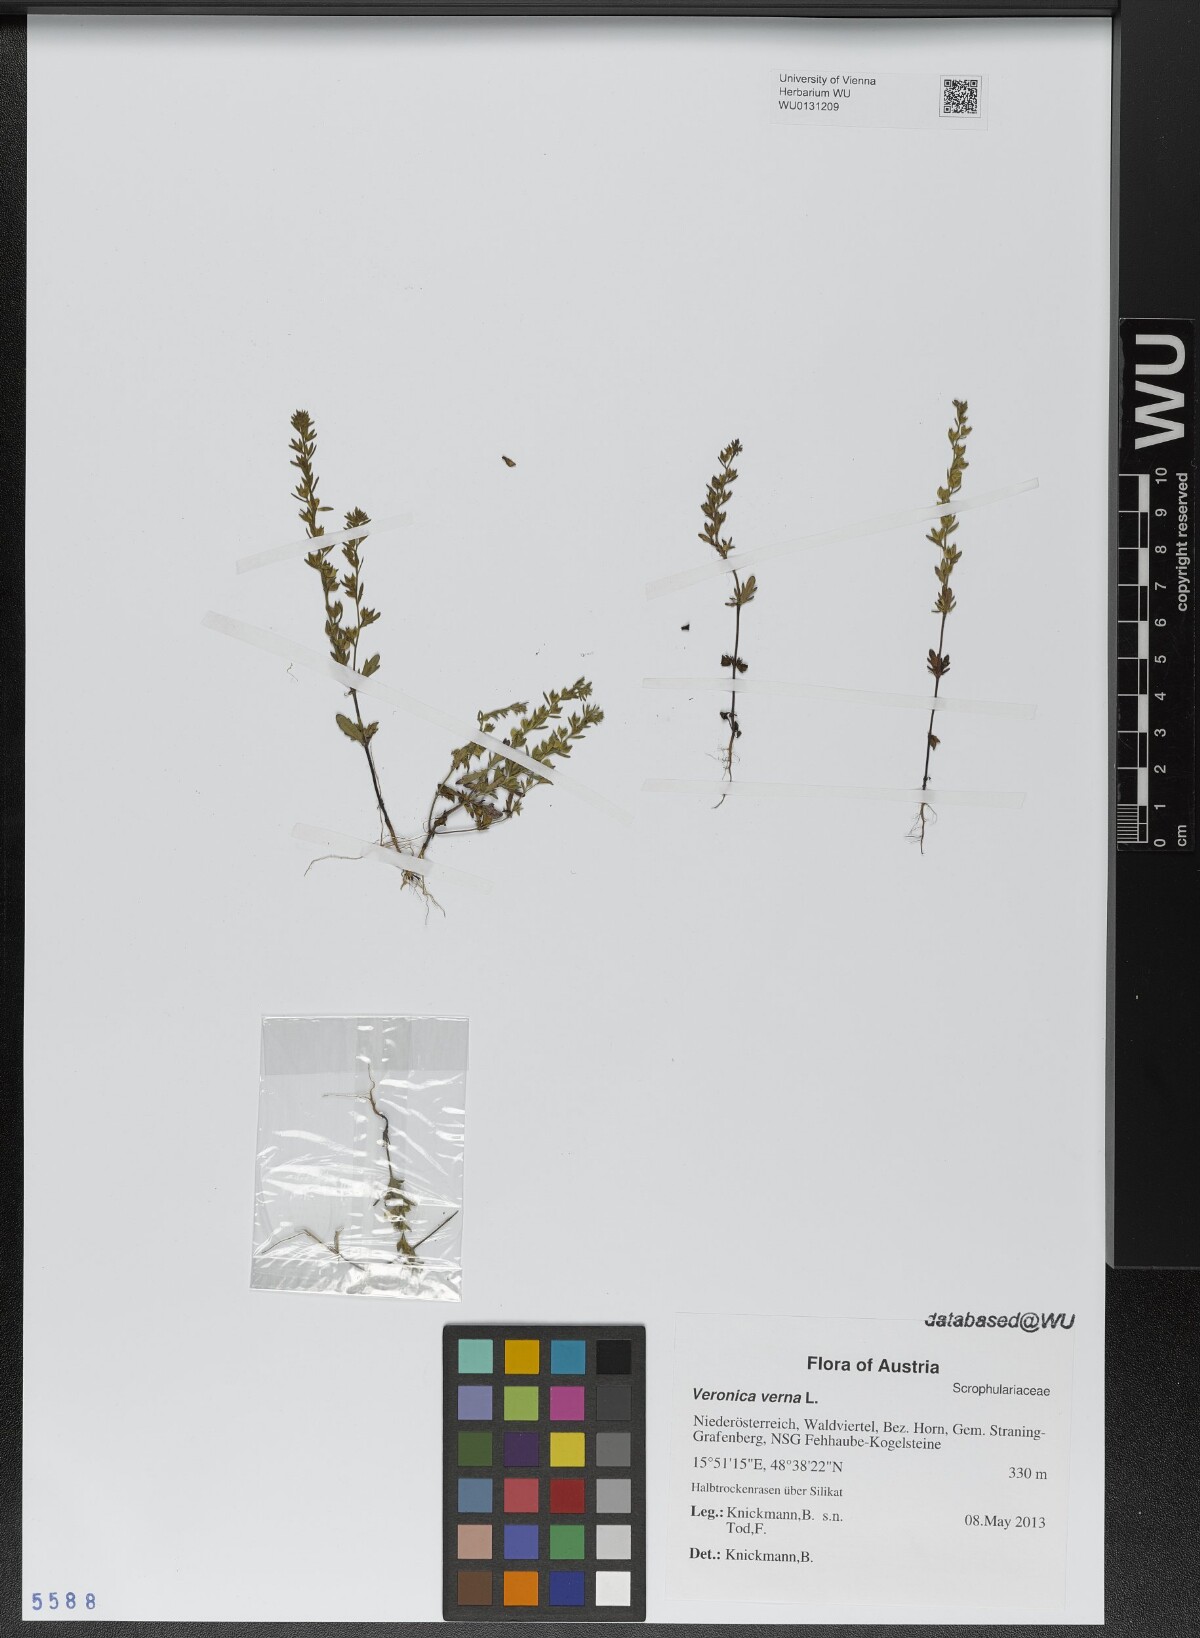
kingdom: Plantae
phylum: Tracheophyta
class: Magnoliopsida
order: Lamiales
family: Plantaginaceae
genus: Veronica
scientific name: Veronica verna
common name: Spring speedwell
